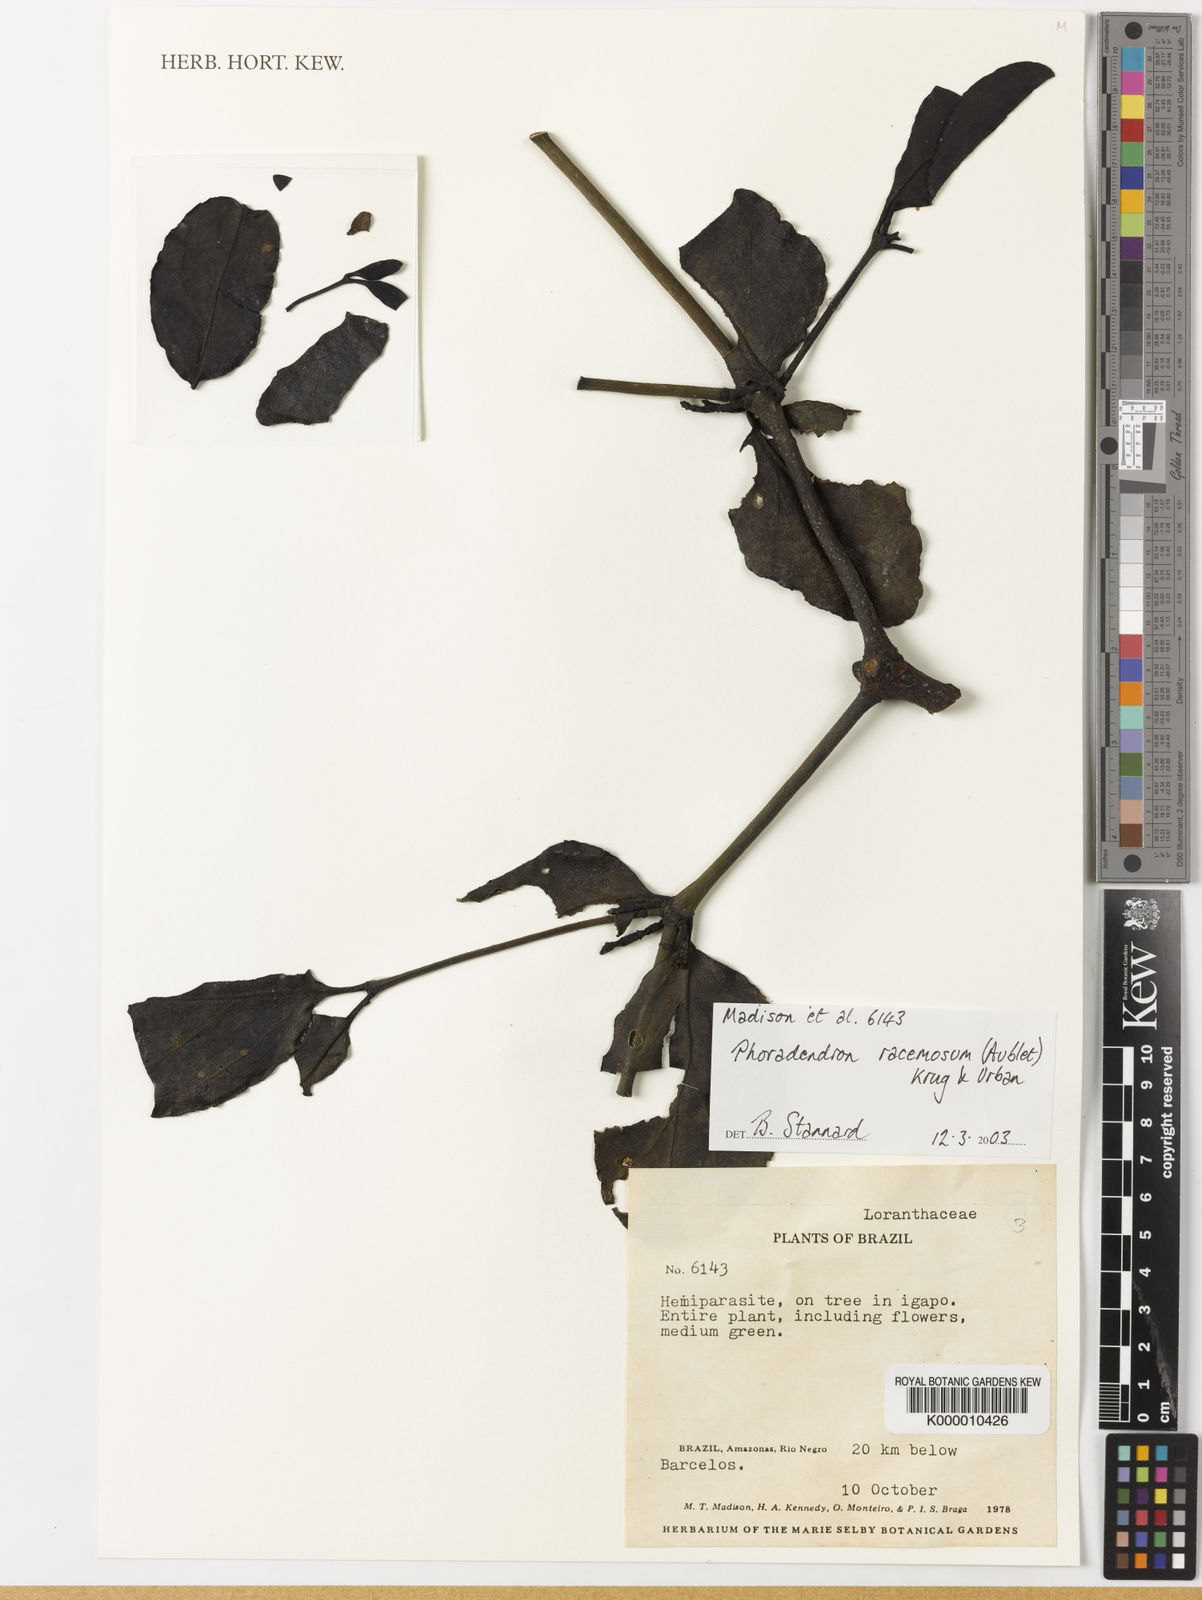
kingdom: Plantae
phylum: Tracheophyta
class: Magnoliopsida
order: Santalales
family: Viscaceae
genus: Phoradendron
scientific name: Phoradendron racemosum
